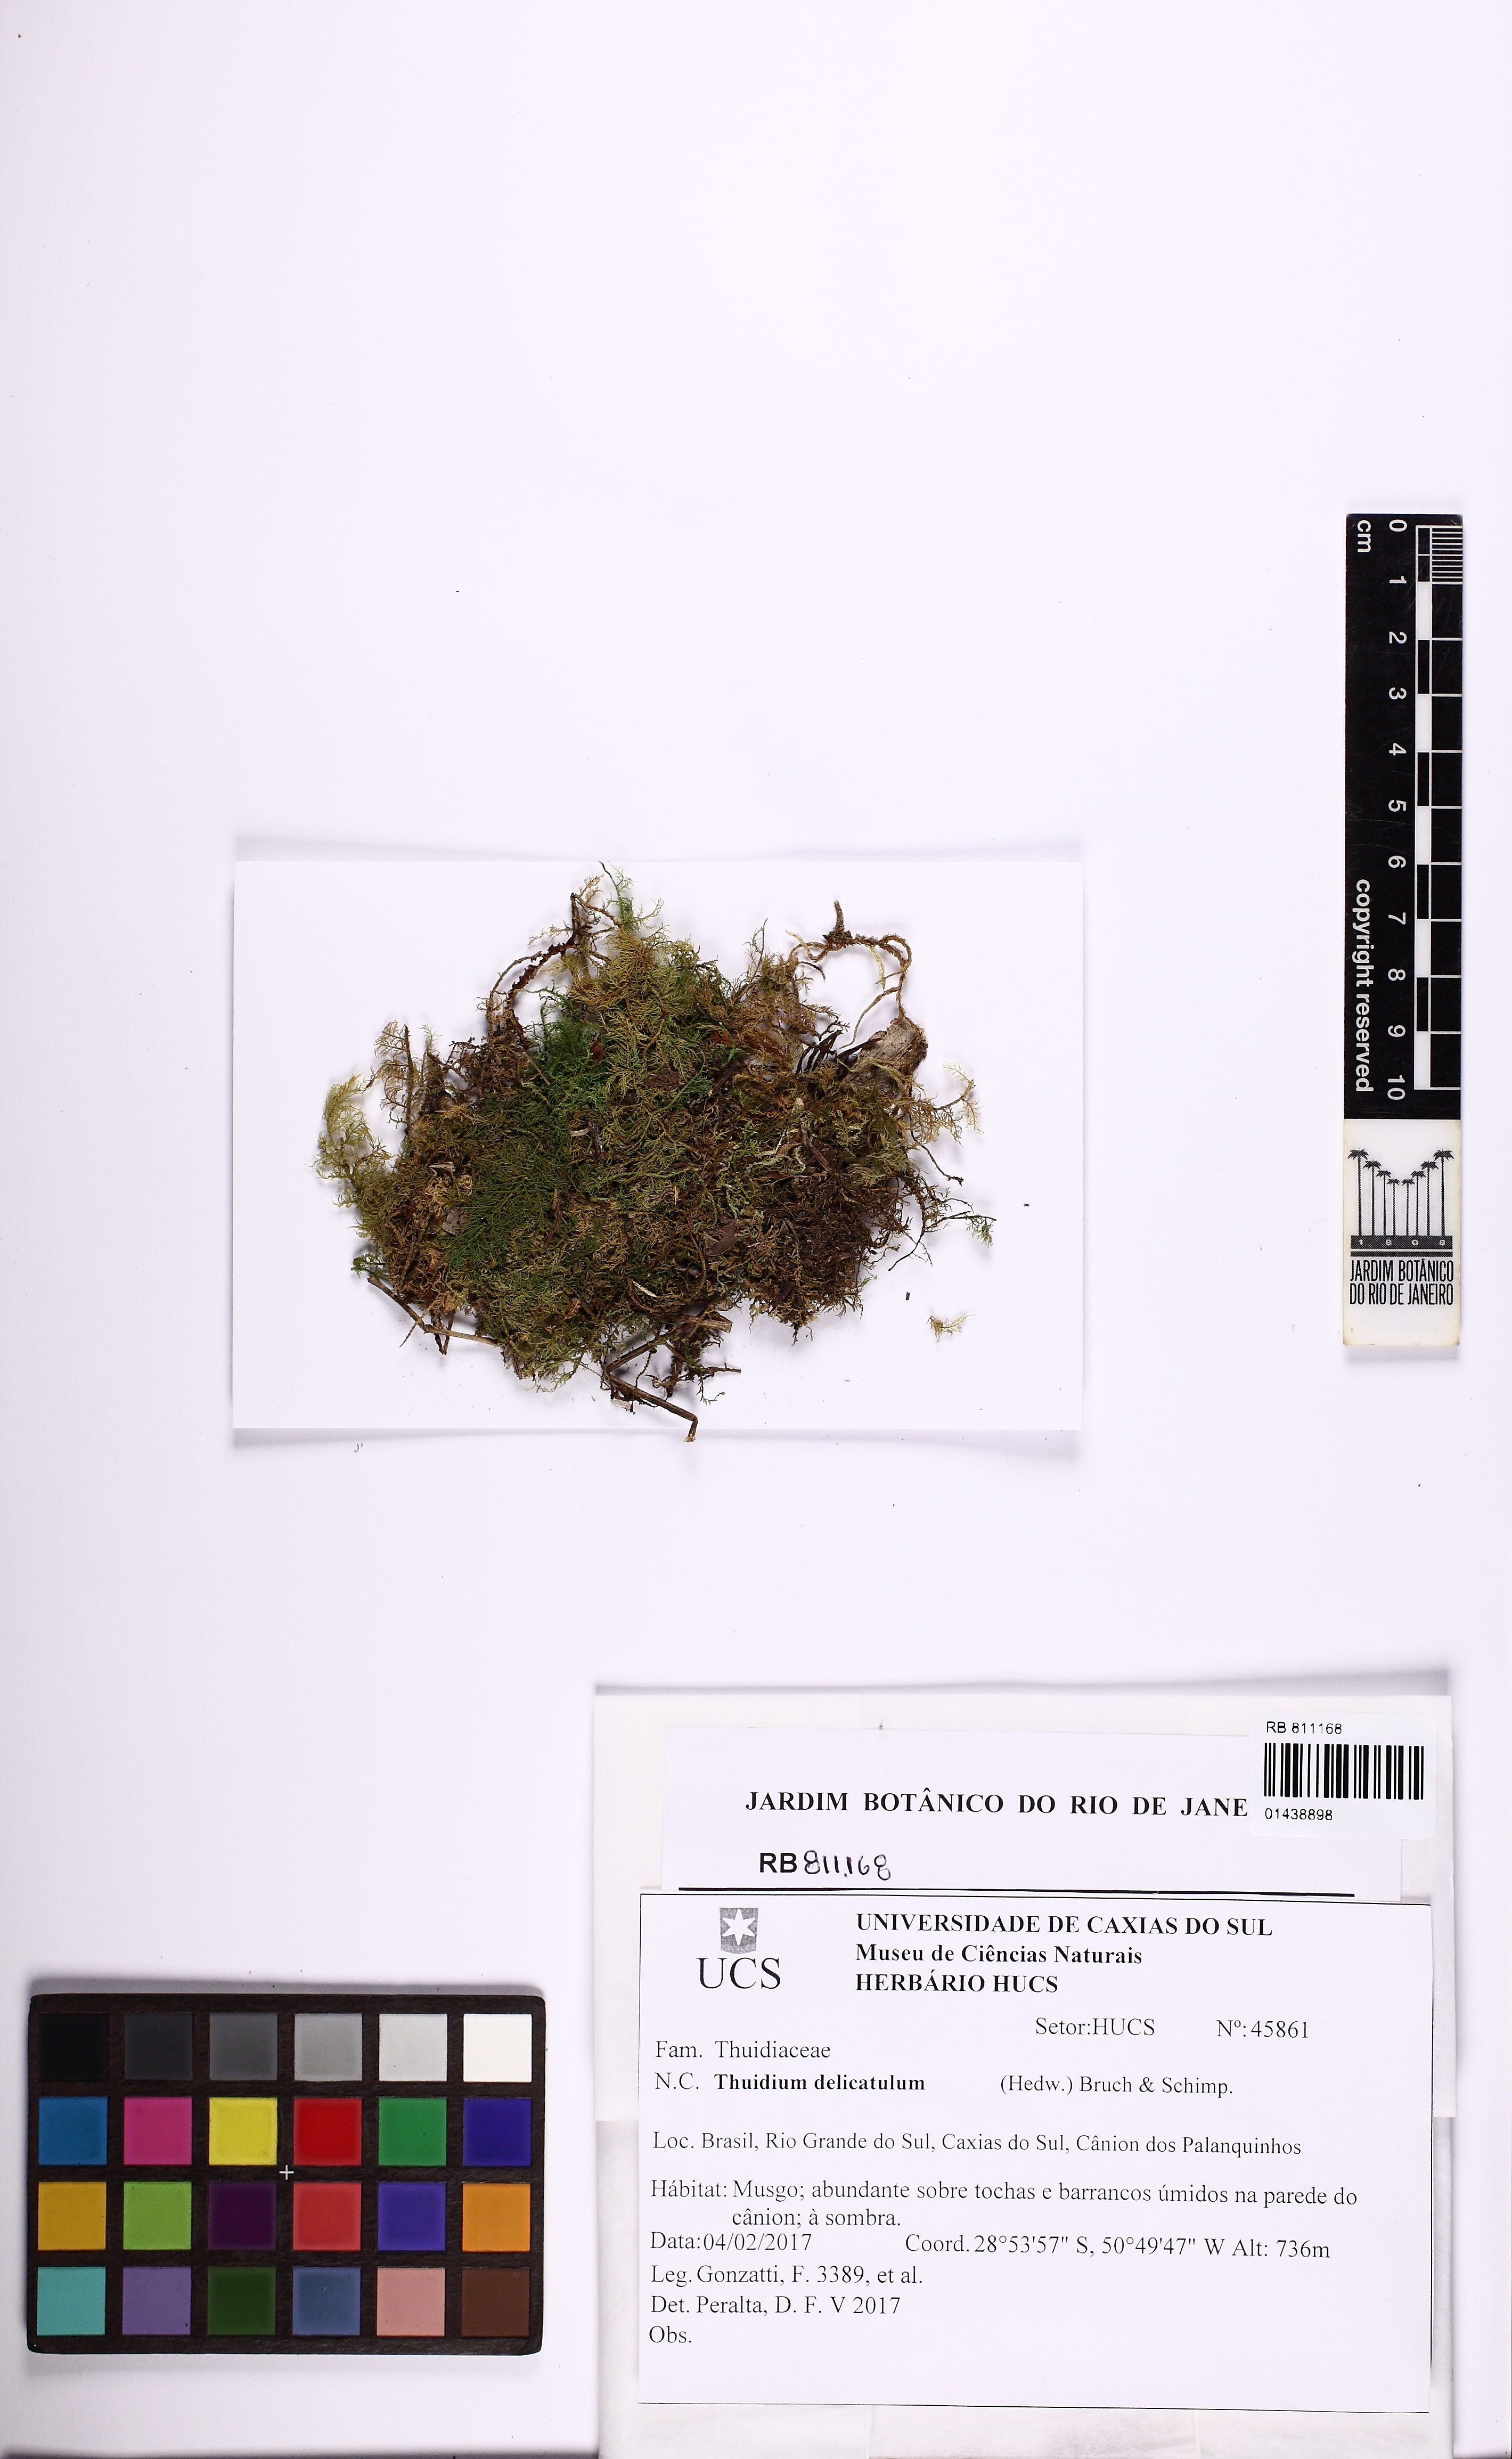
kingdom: Plantae
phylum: Bryophyta
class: Bryopsida
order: Hypnales
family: Thuidiaceae
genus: Thuidium
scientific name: Thuidium delicatulum
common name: Delicate fern moss
